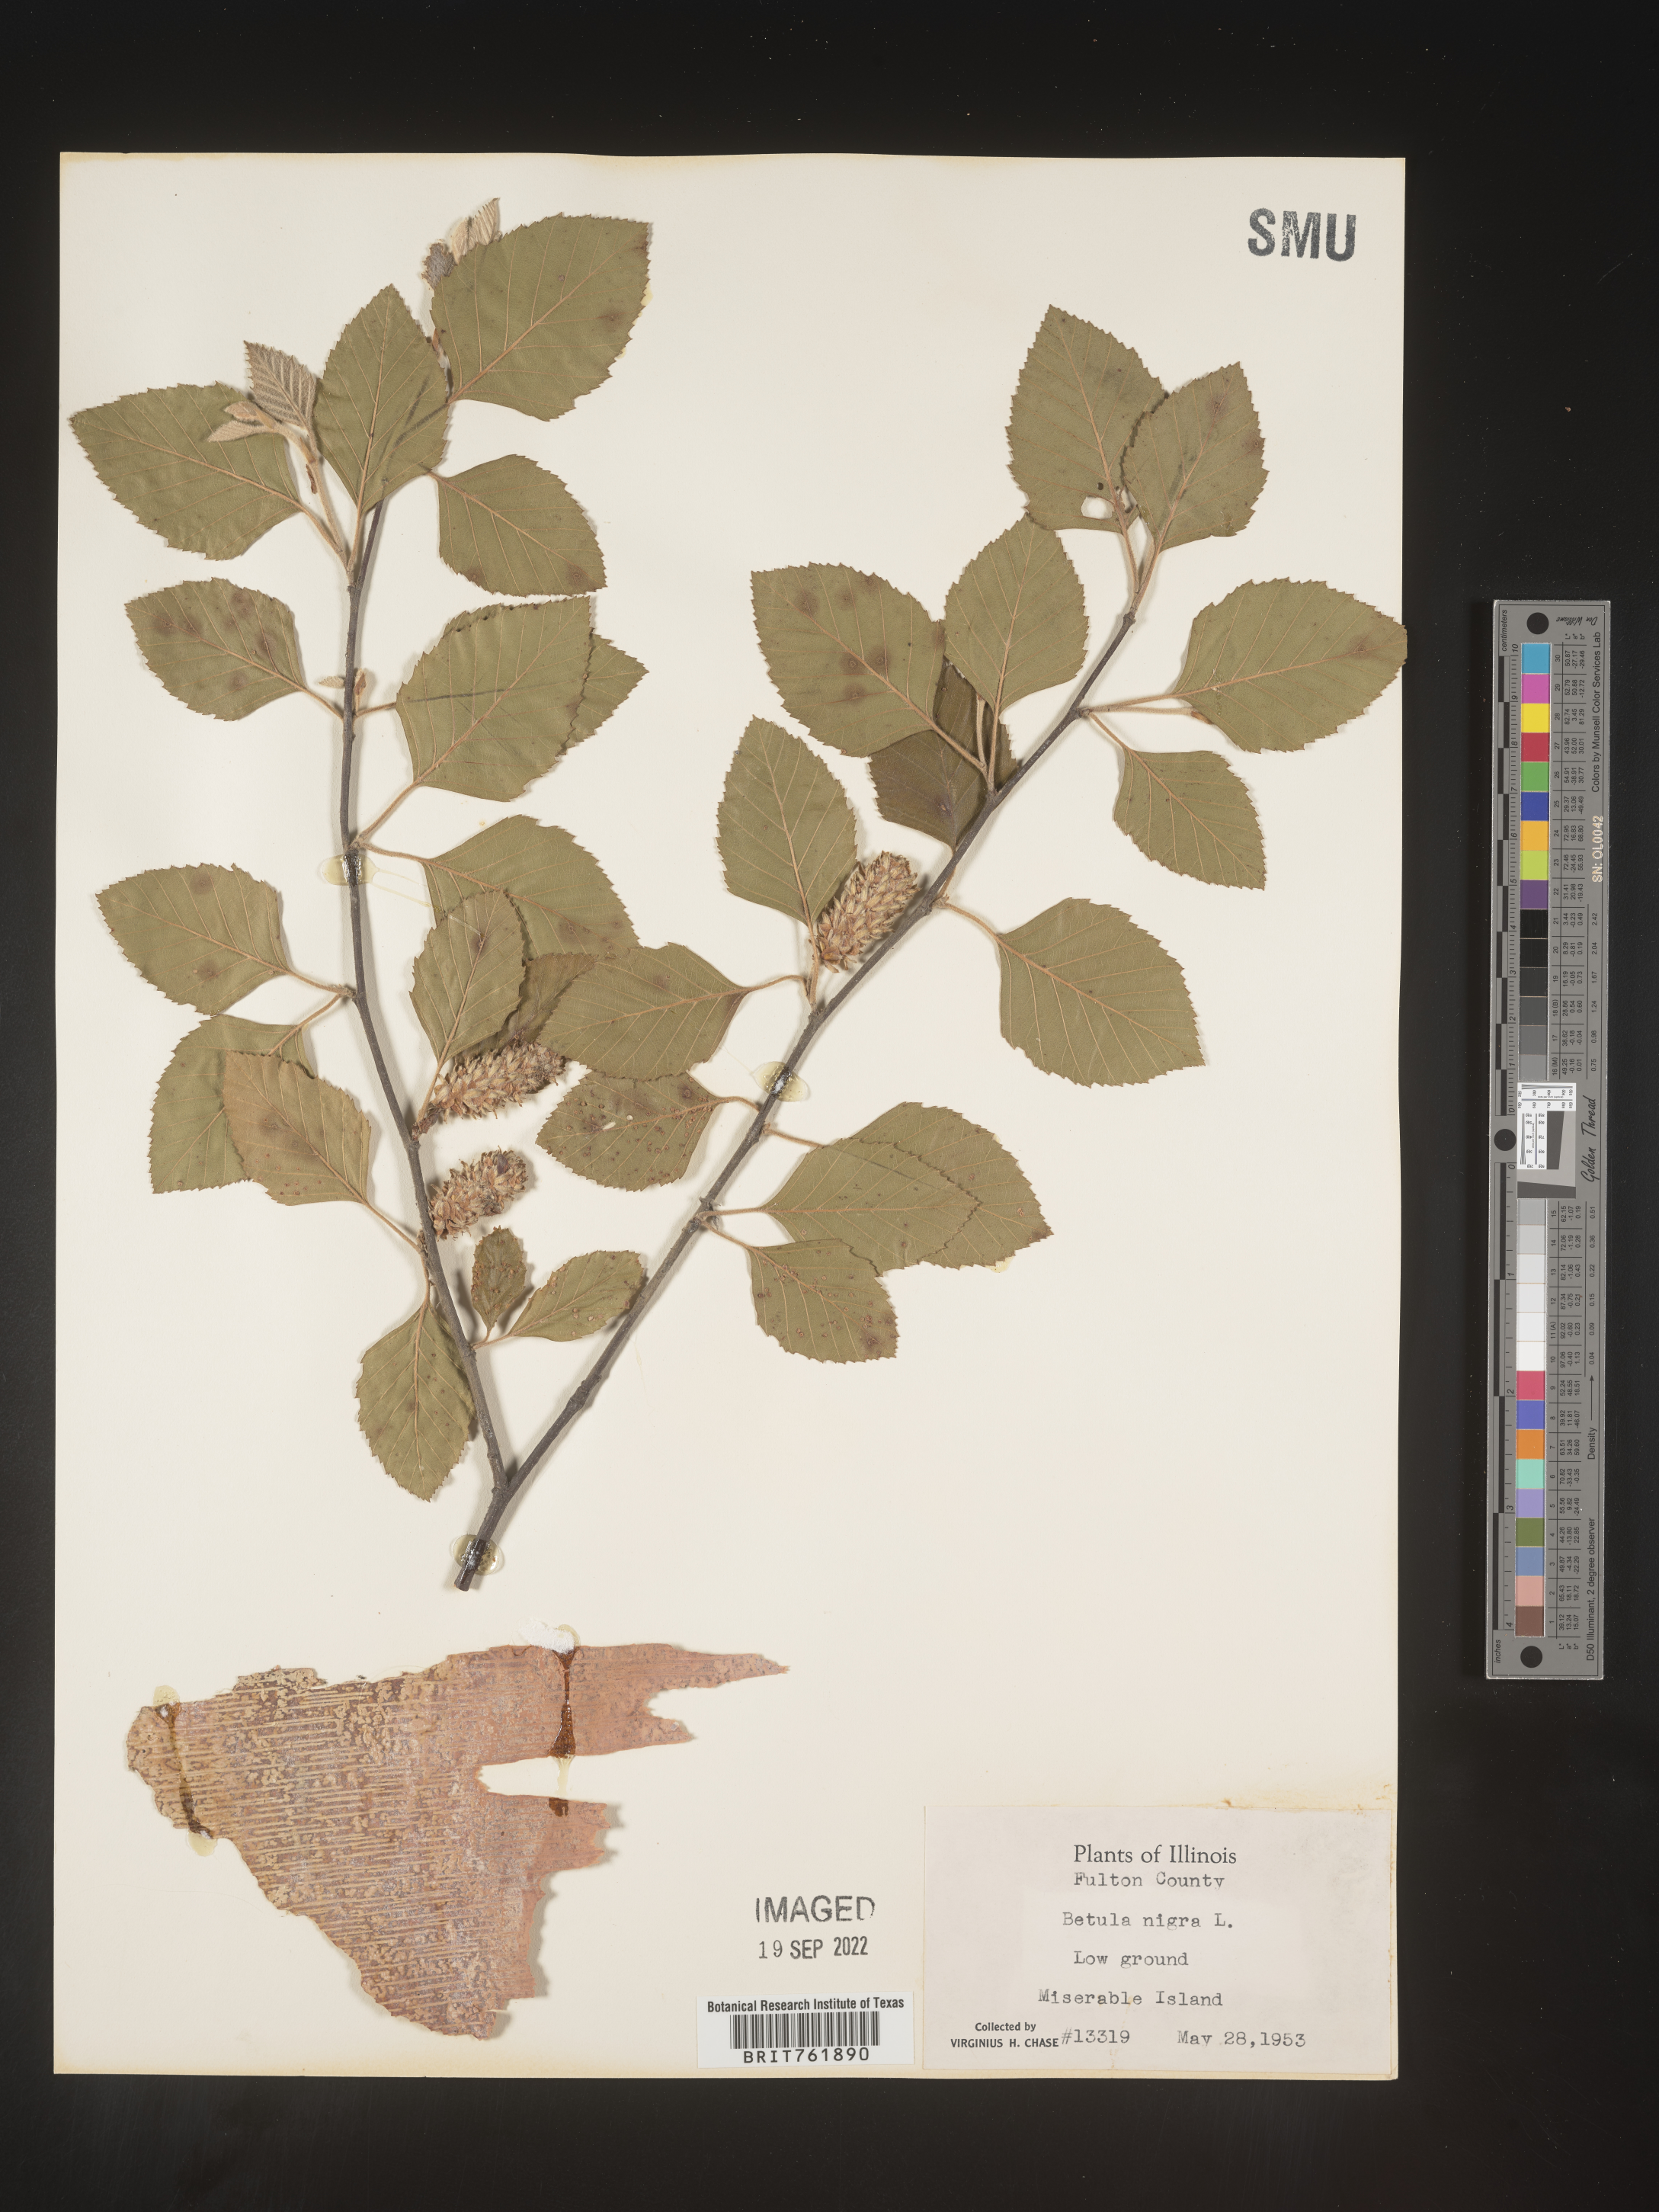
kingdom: Plantae
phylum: Tracheophyta
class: Magnoliopsida
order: Fagales
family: Betulaceae
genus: Betula
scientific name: Betula nigra
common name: Black birch
